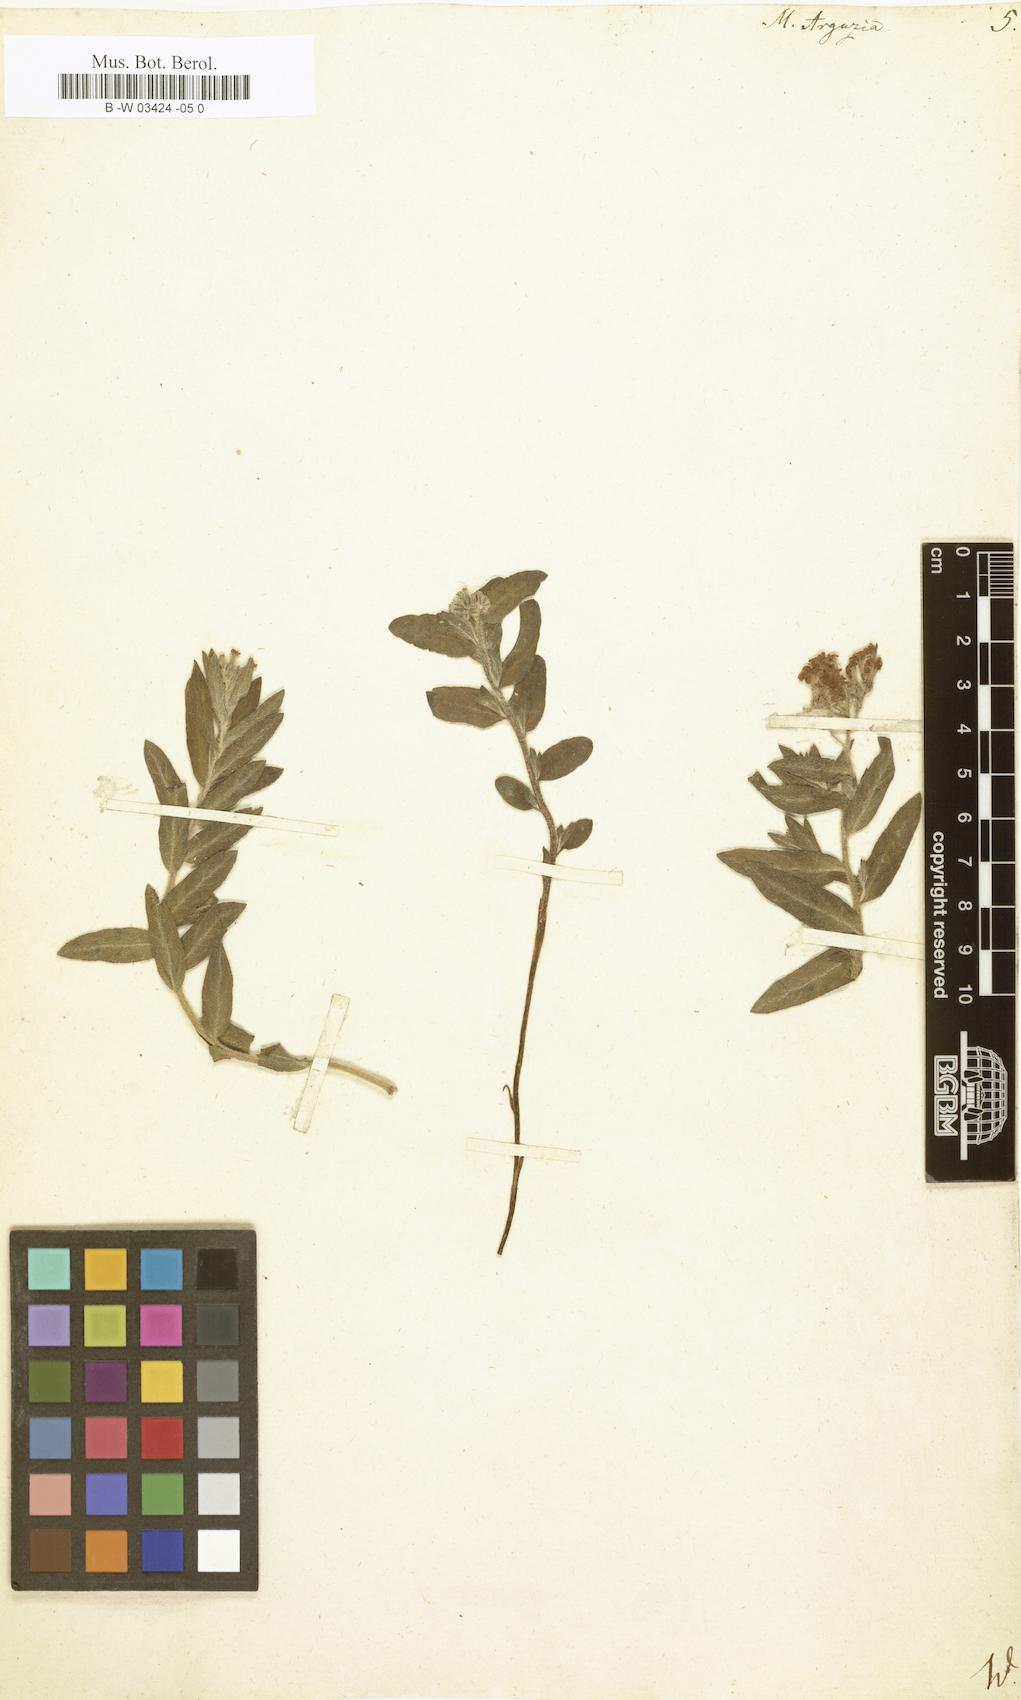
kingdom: Plantae
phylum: Tracheophyta
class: Magnoliopsida
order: Boraginales
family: Heliotropiaceae
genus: Tournefortia
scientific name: Tournefortia sibirica
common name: Siberian sea rosemary
